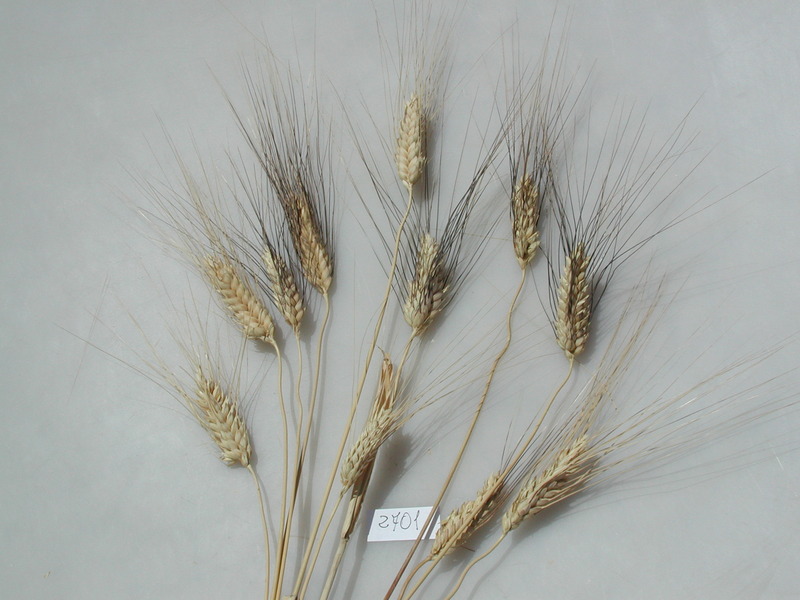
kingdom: Plantae
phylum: Tracheophyta
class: Liliopsida
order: Poales
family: Poaceae
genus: Triticum
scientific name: Triticum turgidum
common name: Wheat
